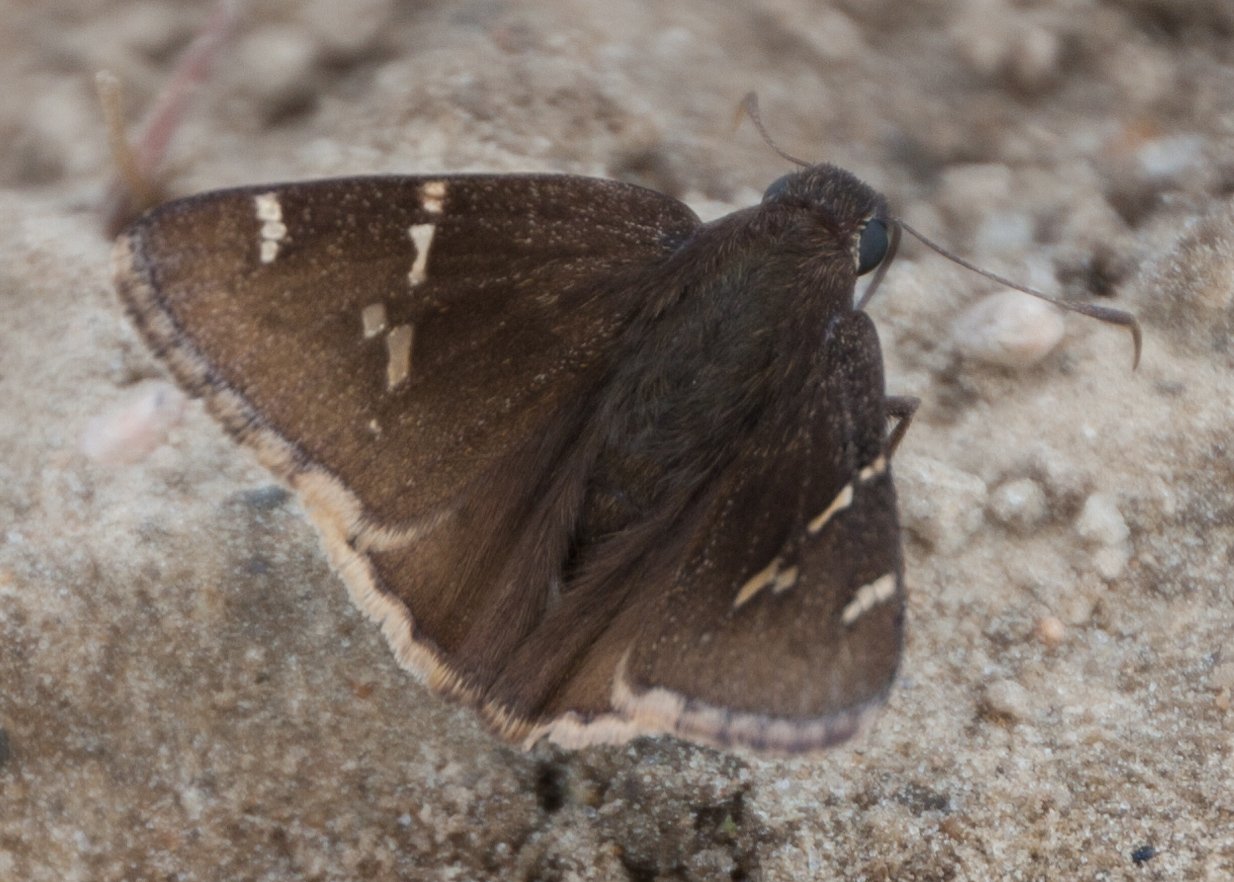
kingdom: Animalia
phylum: Arthropoda
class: Insecta
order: Lepidoptera
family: Hesperiidae
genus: Autochton
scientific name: Autochton
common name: Southern Cloudywing
